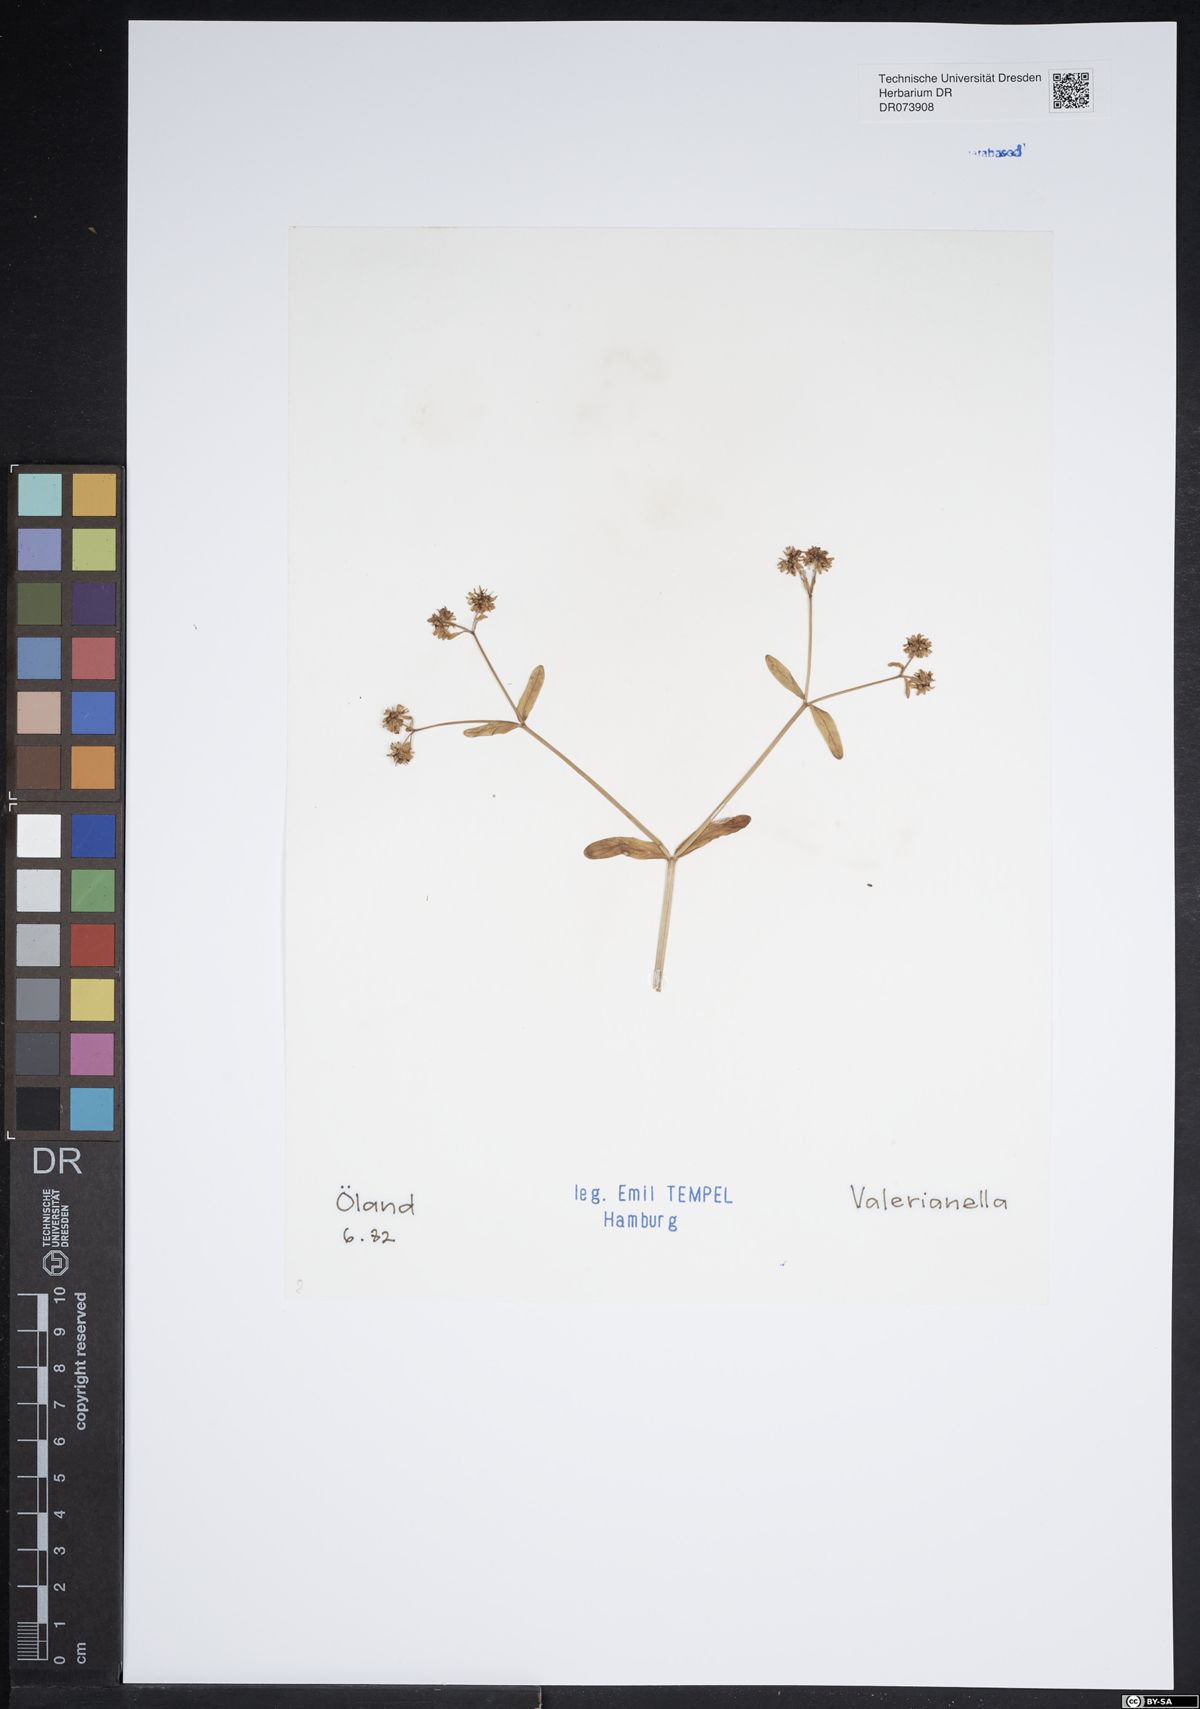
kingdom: Plantae
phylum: Tracheophyta
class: Magnoliopsida
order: Dipsacales
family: Caprifoliaceae
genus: Valerianella
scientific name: Valerianella
